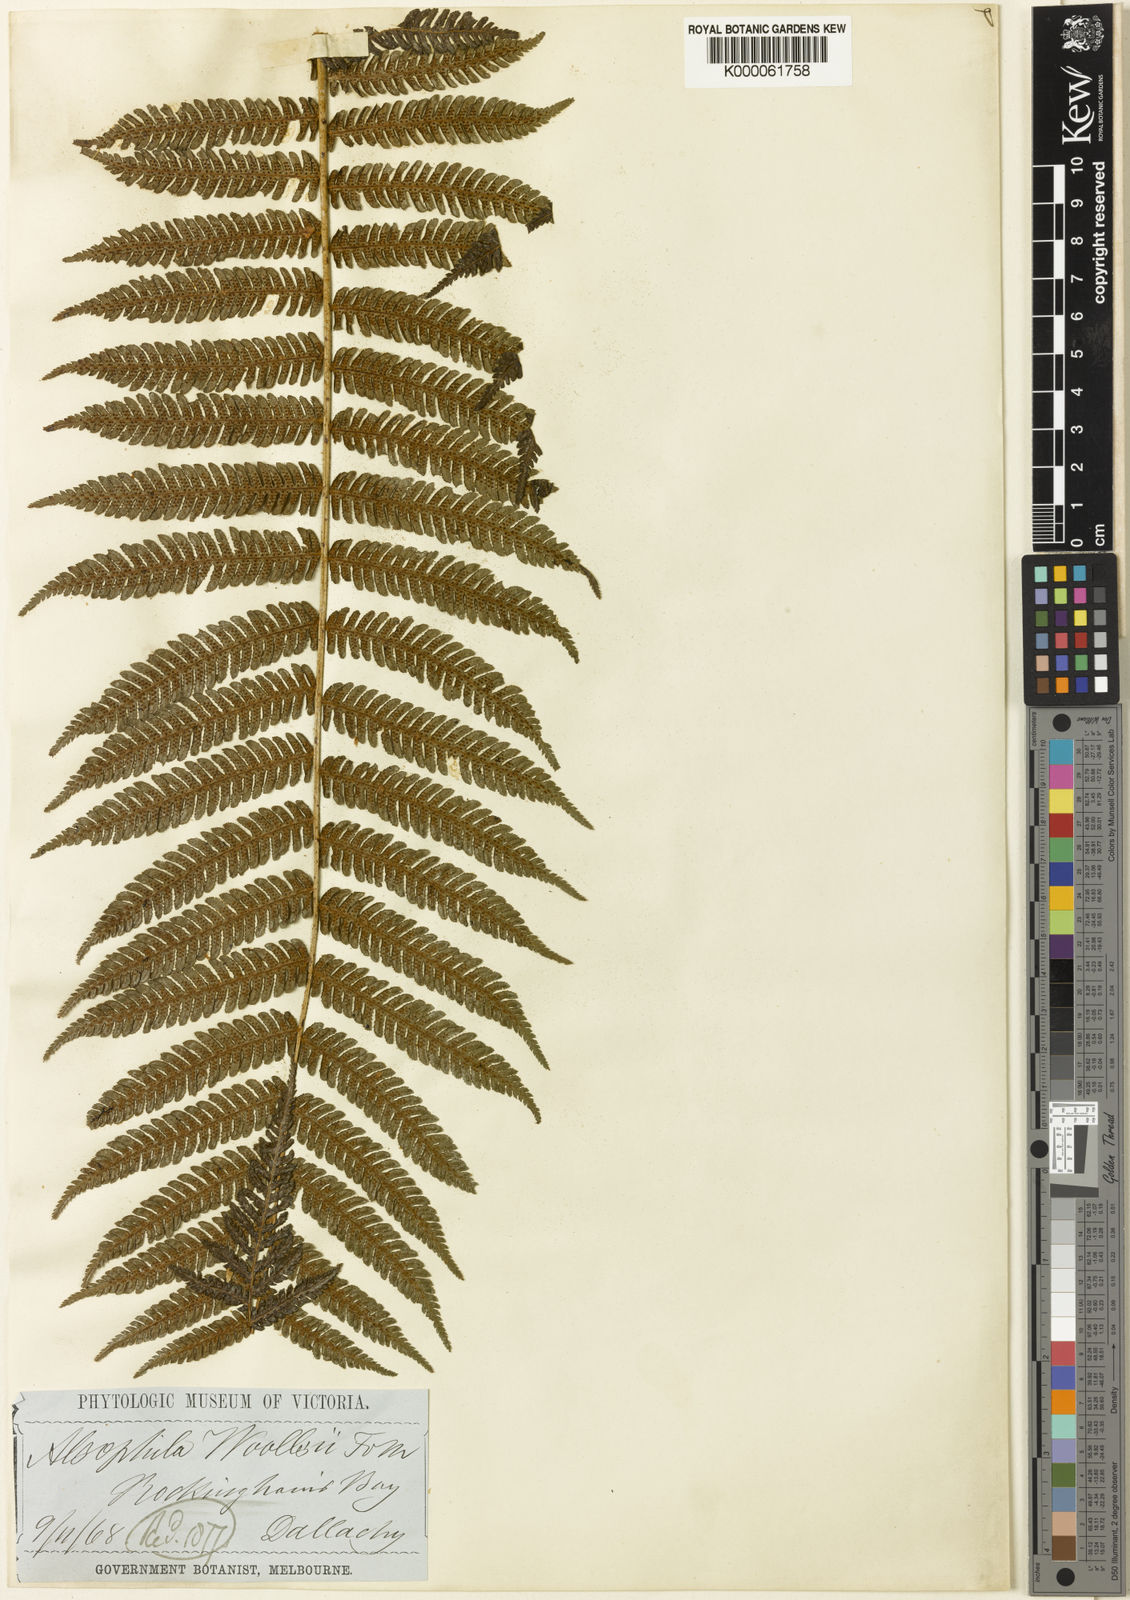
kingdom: Plantae
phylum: Tracheophyta
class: Polypodiopsida
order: Cyatheales
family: Cyatheaceae
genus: Alsophila
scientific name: Alsophila woollsiana
